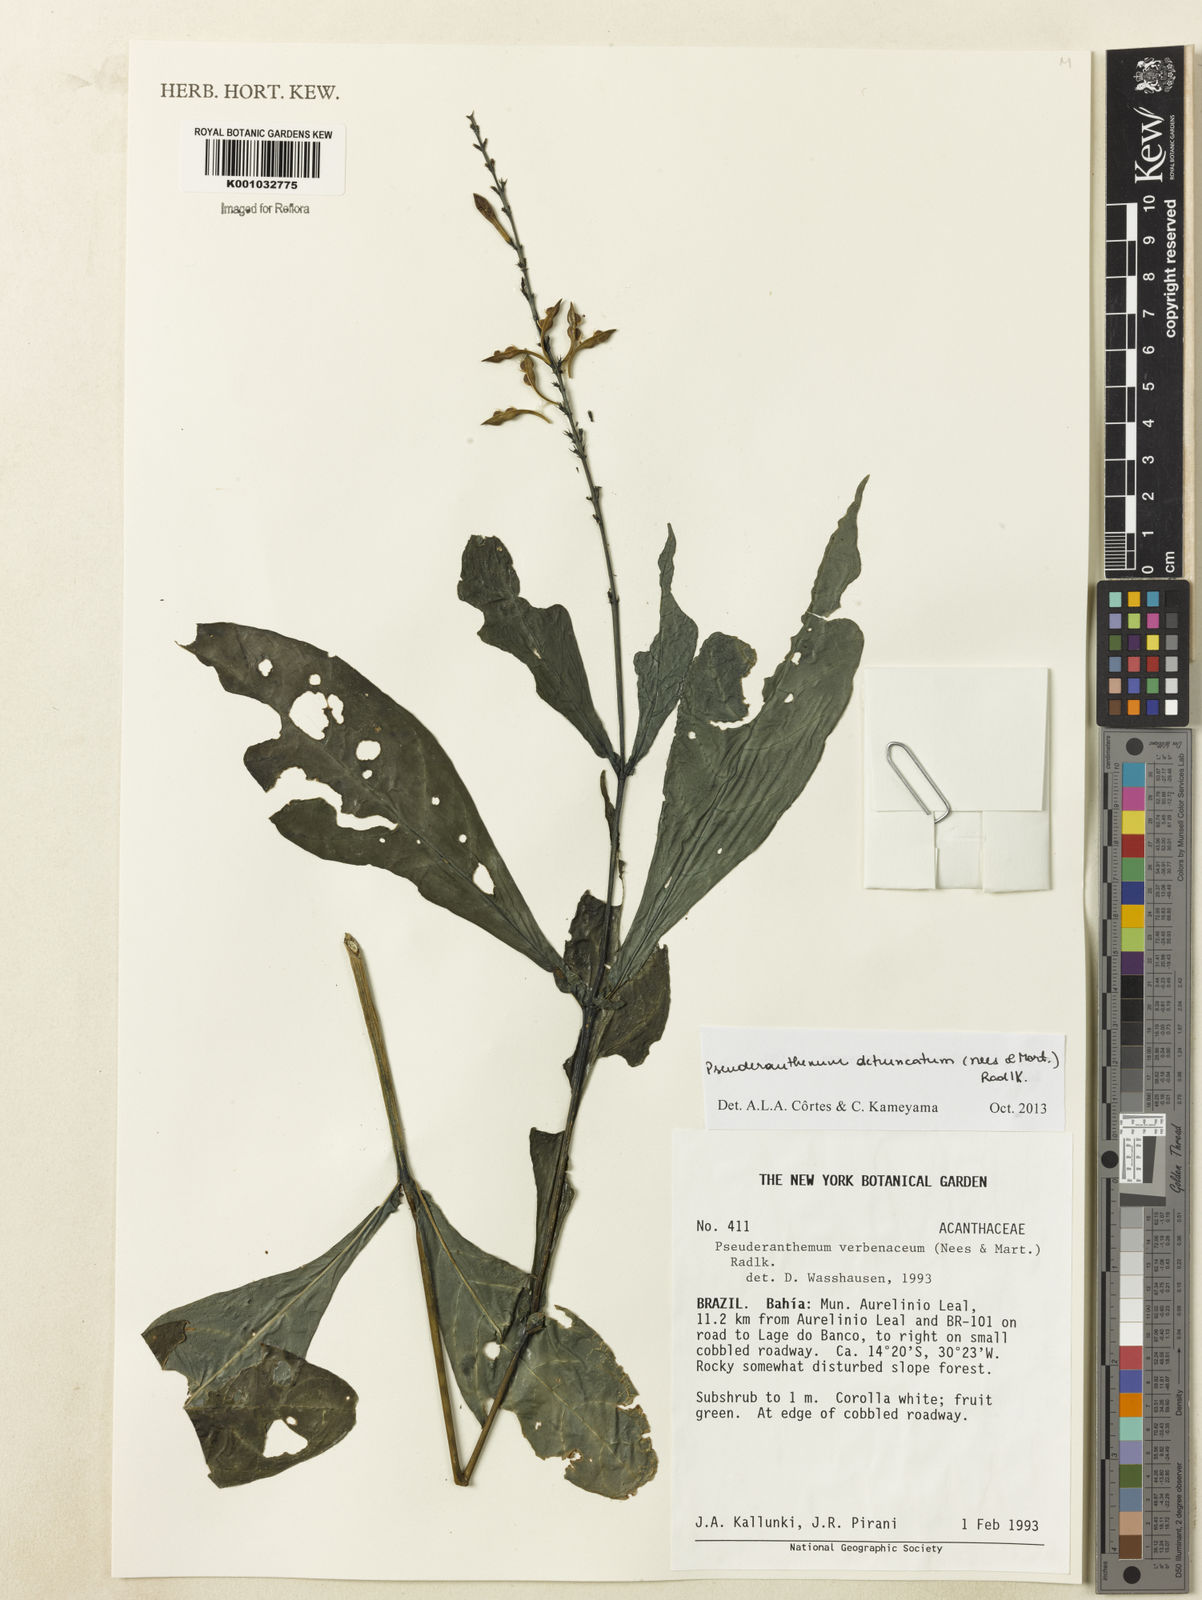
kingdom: Plantae
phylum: Tracheophyta
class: Magnoliopsida
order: Lamiales
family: Acanthaceae
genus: Pseuderanthemum
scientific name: Pseuderanthemum detruncatum
